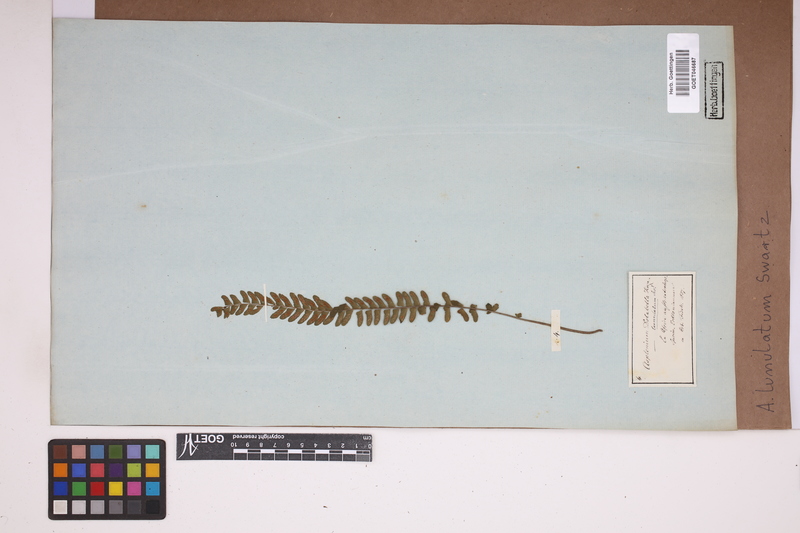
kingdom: Plantae
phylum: Tracheophyta
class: Polypodiopsida
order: Polypodiales
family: Aspleniaceae
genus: Asplenium
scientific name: Asplenium lunulatum
